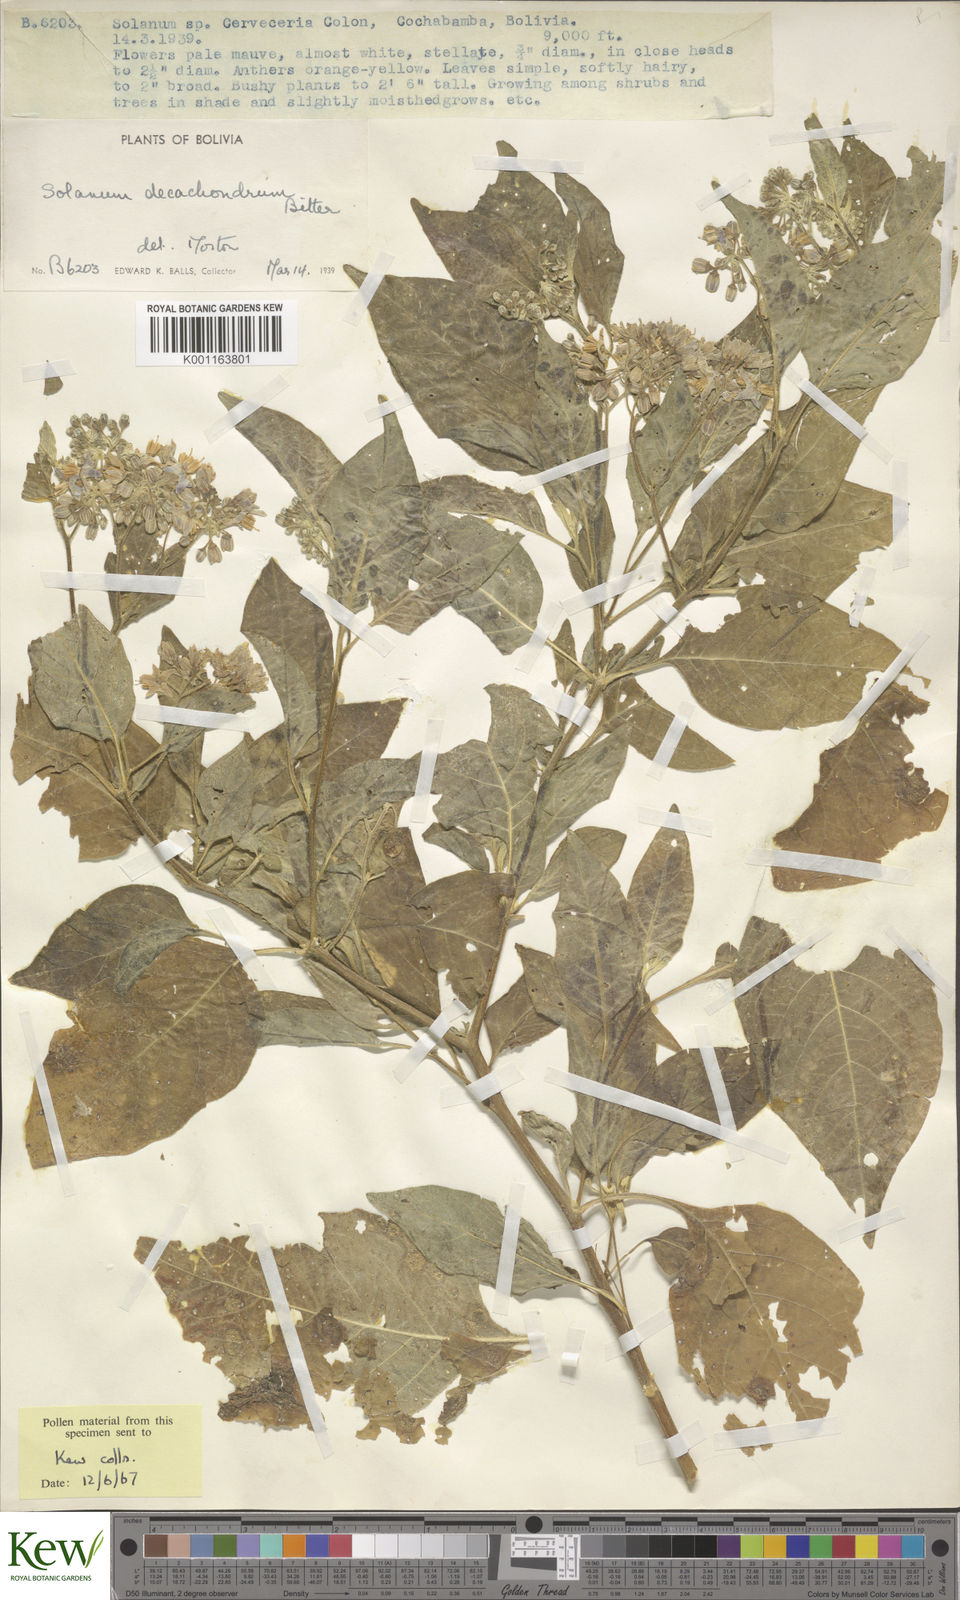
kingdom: Plantae
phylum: Tracheophyta
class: Magnoliopsida
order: Solanales
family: Solanaceae
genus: Solanum
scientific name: Solanum cochabambense
